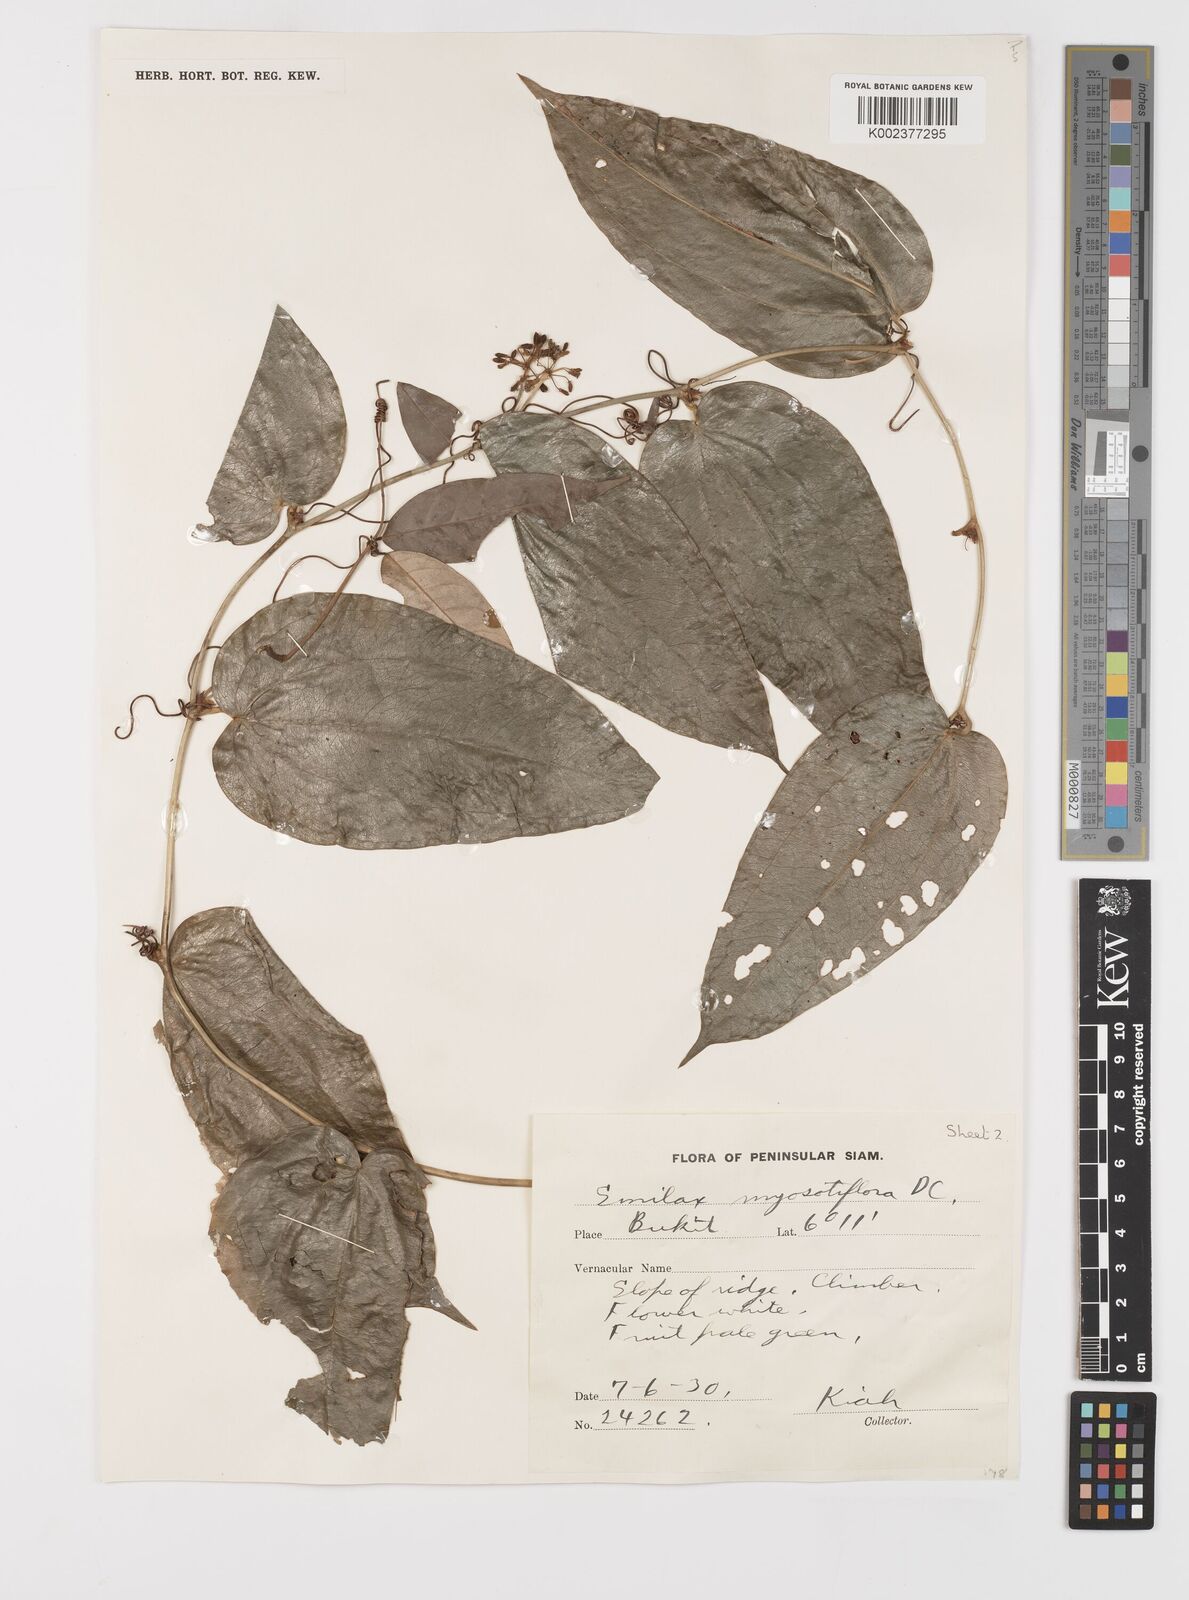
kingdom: Plantae
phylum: Tracheophyta
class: Liliopsida
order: Liliales
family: Smilacaceae
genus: Smilax
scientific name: Smilax myosotiflora
